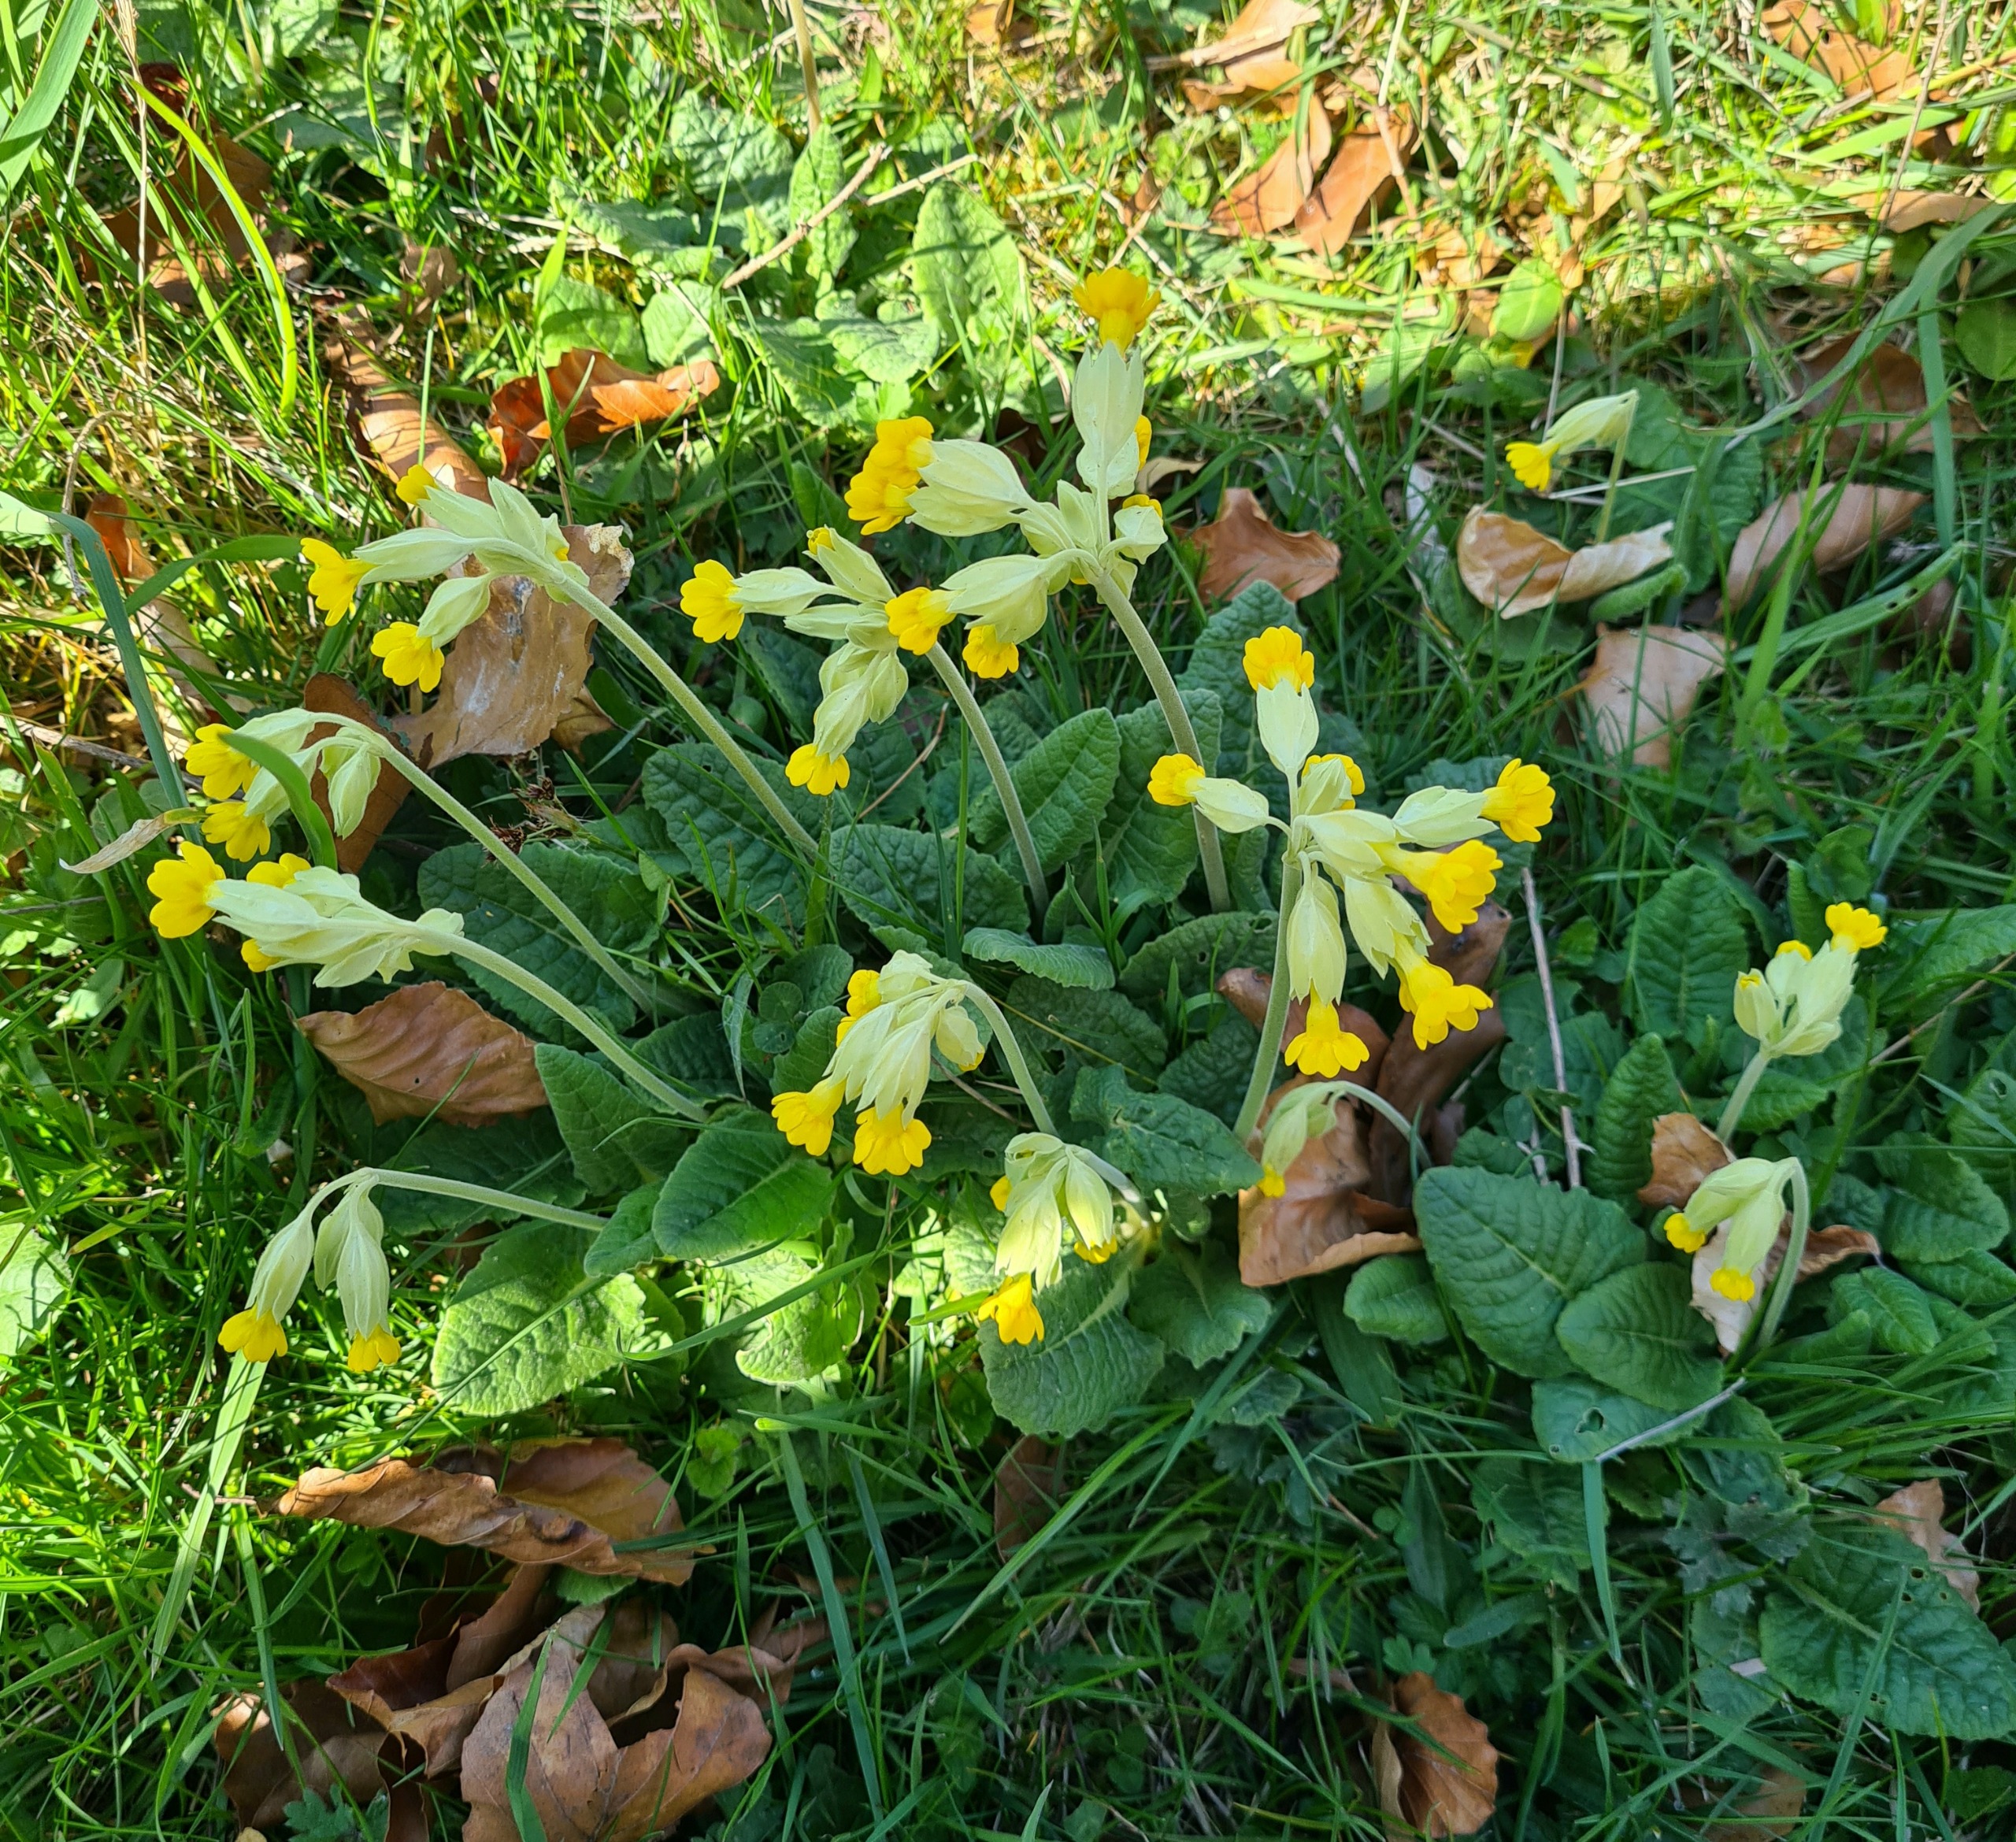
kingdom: Plantae
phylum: Tracheophyta
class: Magnoliopsida
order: Ericales
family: Primulaceae
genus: Primula
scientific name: Primula veris
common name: Hulkravet kodriver
